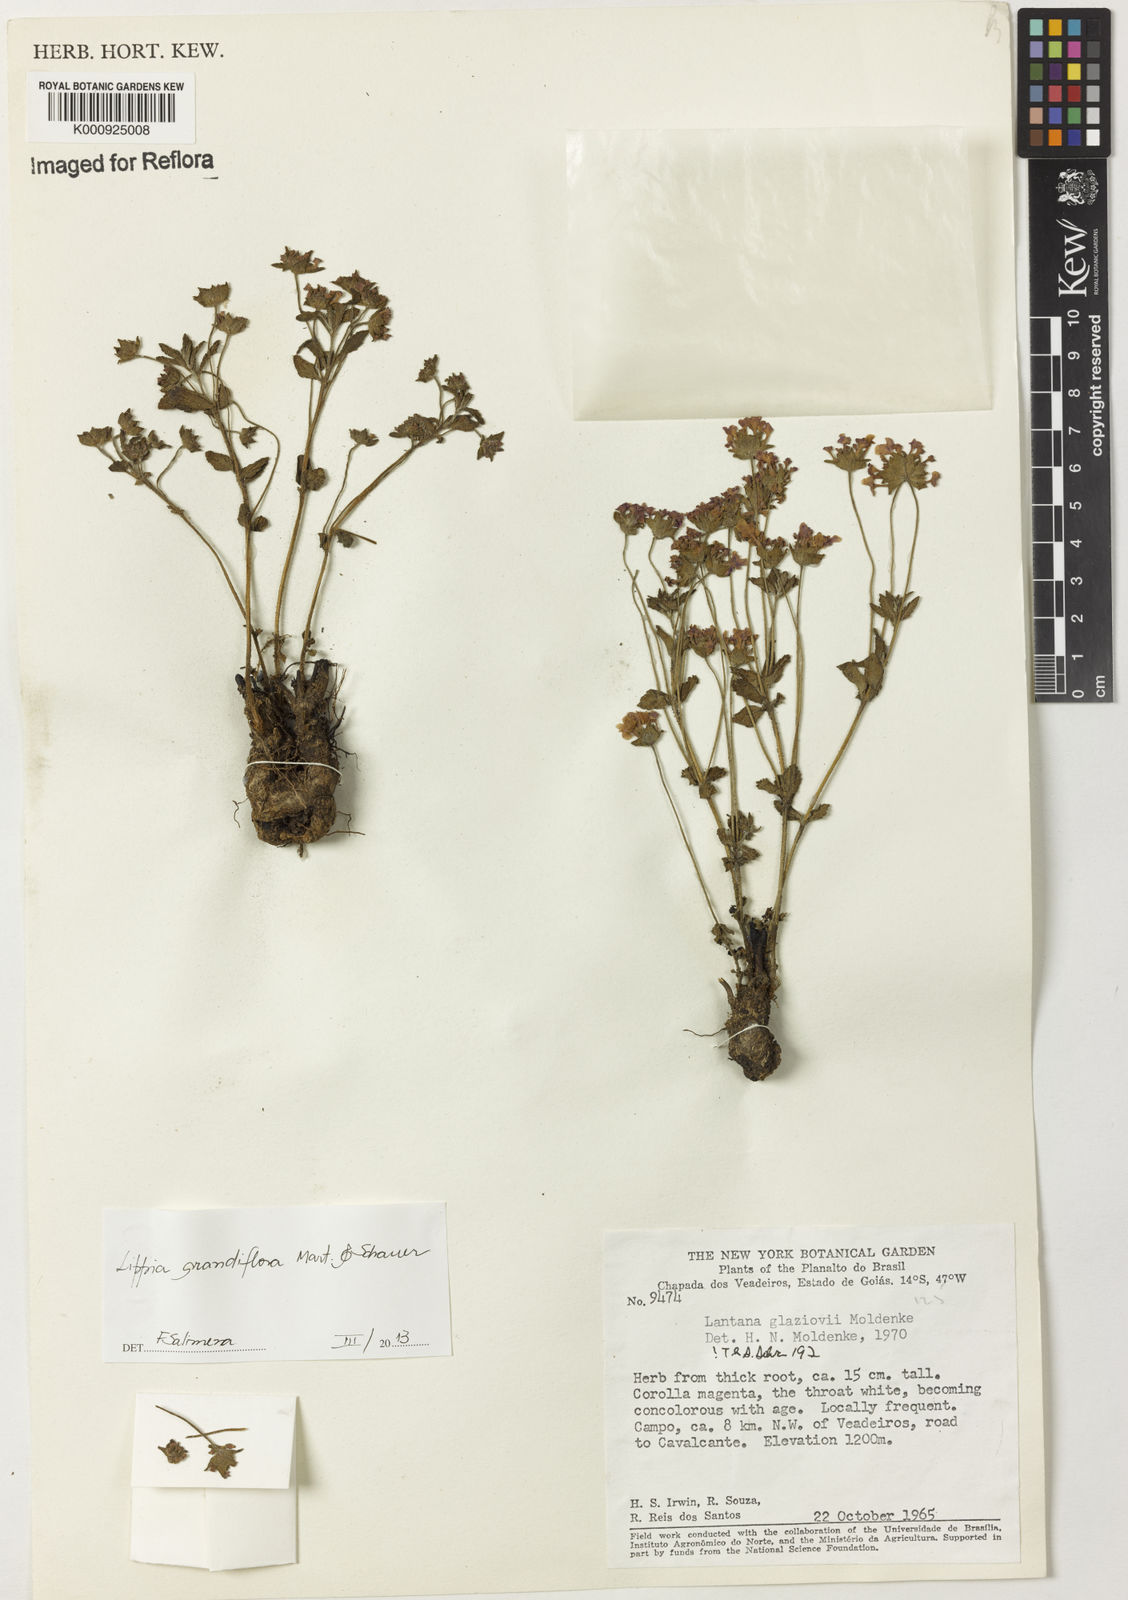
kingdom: Plantae
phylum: Tracheophyta
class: Magnoliopsida
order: Lamiales
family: Verbenaceae
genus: Lippia
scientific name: Lippia grandiflora
